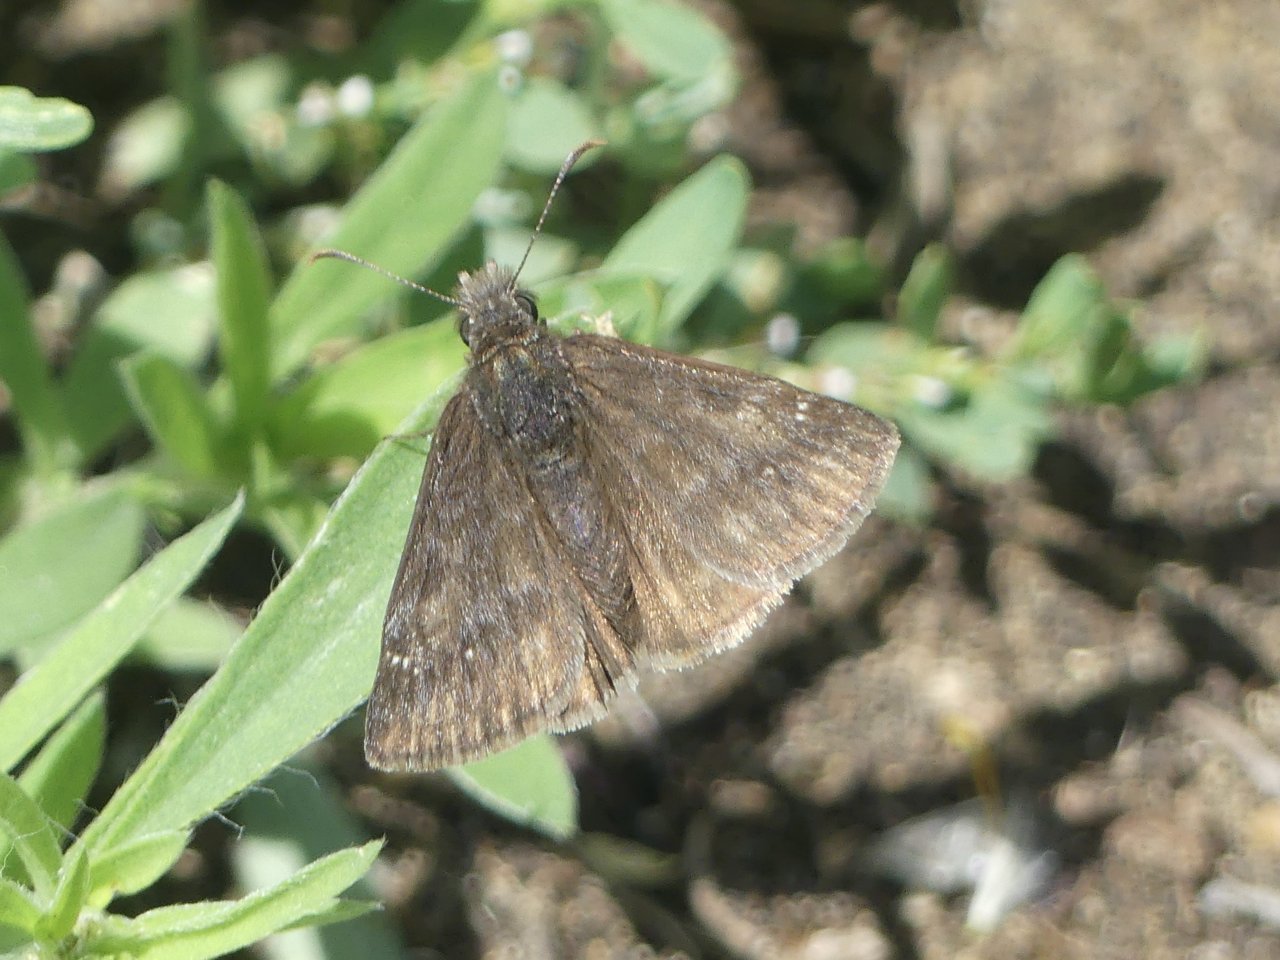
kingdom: Animalia
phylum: Arthropoda
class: Insecta
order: Lepidoptera
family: Hesperiidae
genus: Gesta
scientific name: Gesta
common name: Persius Duskywing
